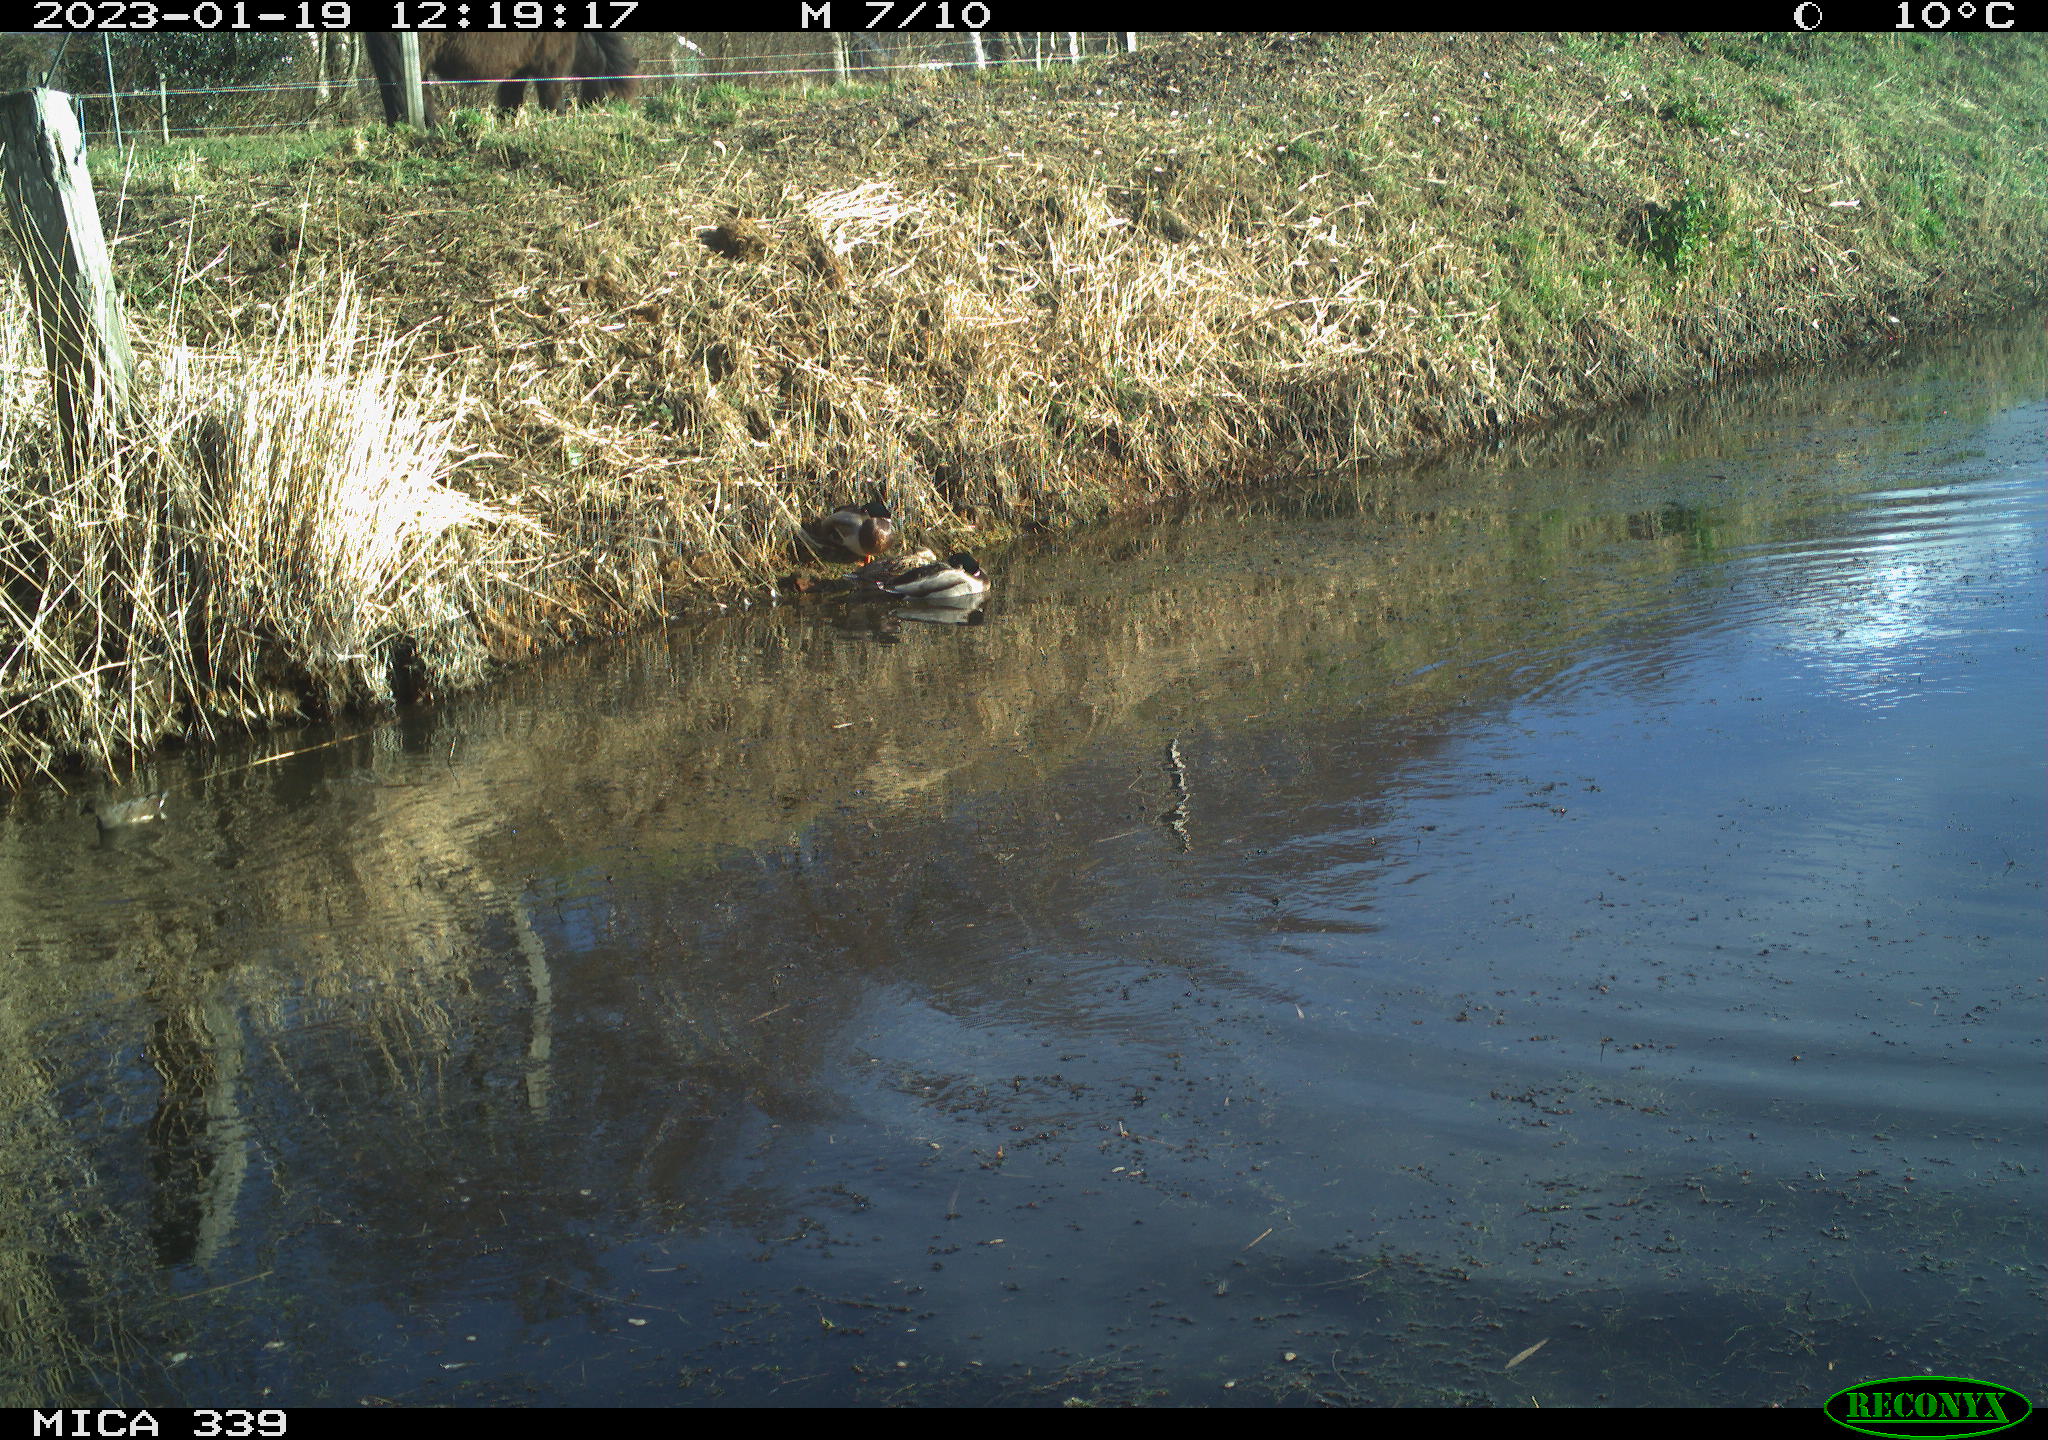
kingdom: Animalia
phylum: Chordata
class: Aves
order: Anseriformes
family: Anatidae
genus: Anas
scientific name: Anas
